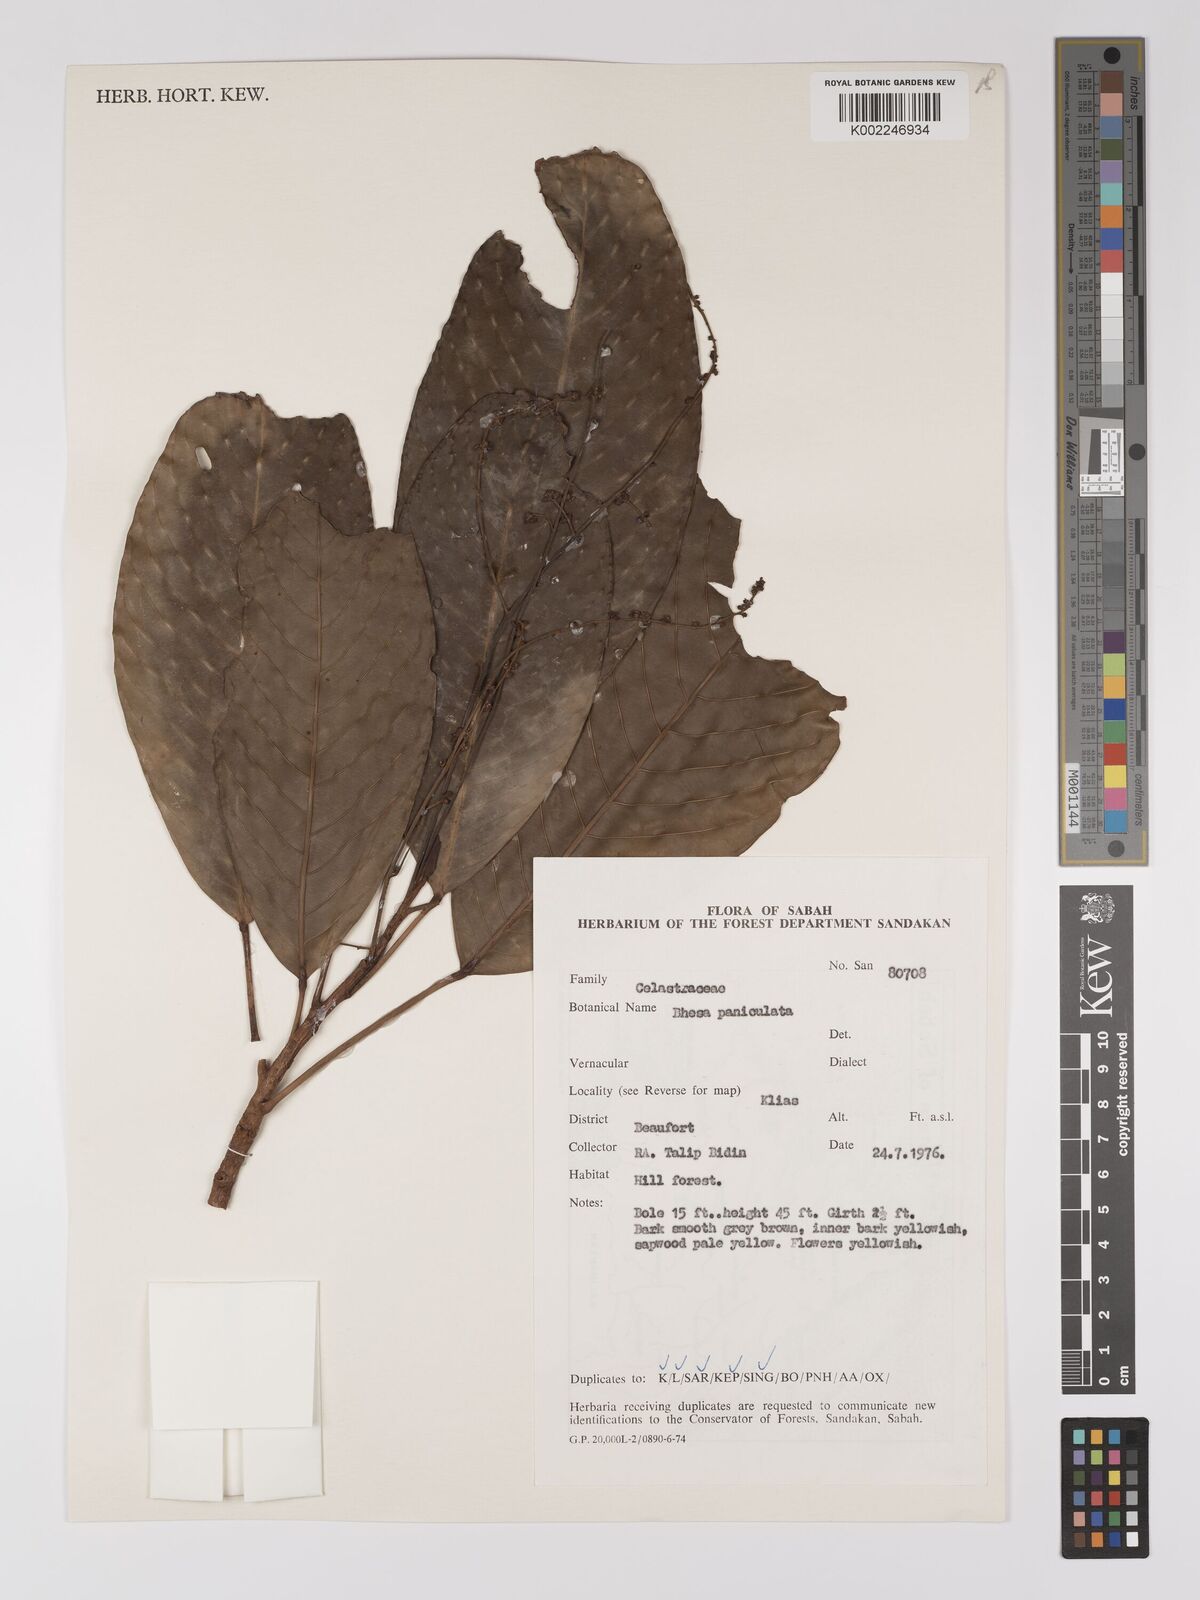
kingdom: Plantae
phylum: Tracheophyta
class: Magnoliopsida
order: Malpighiales
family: Centroplacaceae
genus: Bhesa
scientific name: Bhesa paniculata
